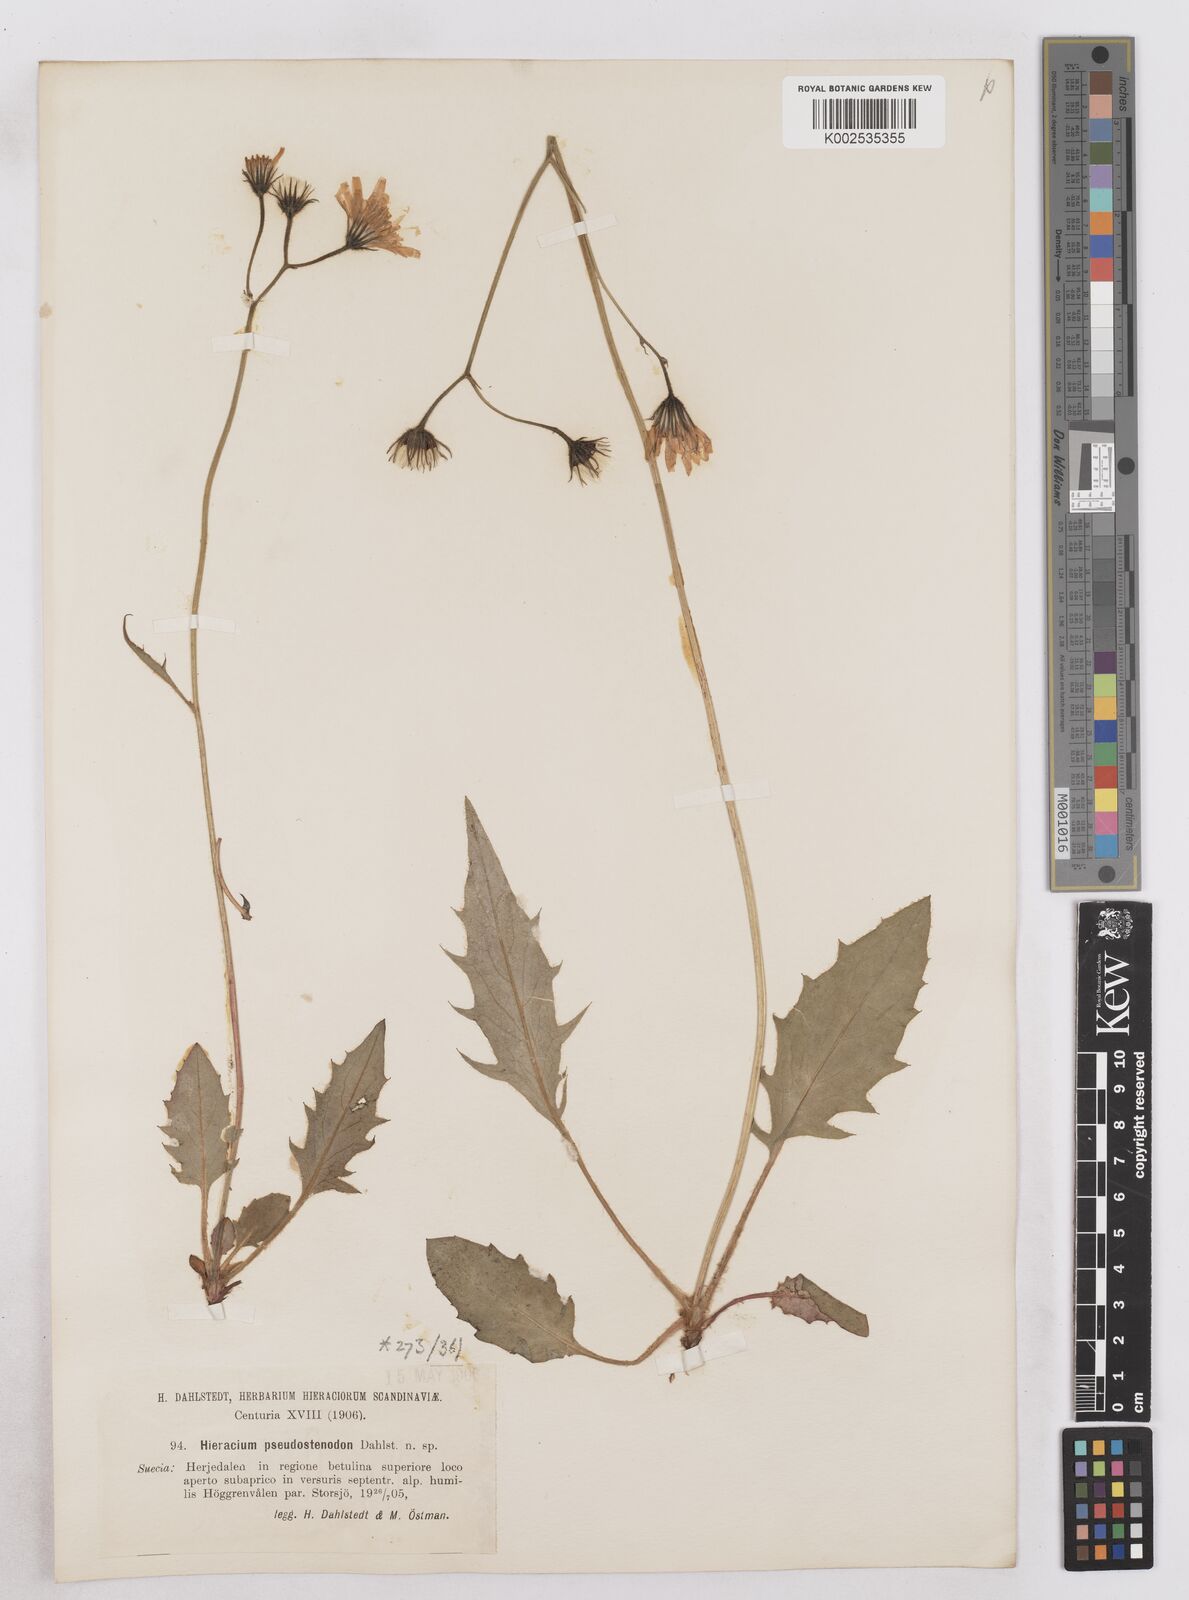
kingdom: Plantae
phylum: Tracheophyta
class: Magnoliopsida
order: Asterales
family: Asteraceae
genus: Hieracium
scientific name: Hieracium conspurcans
